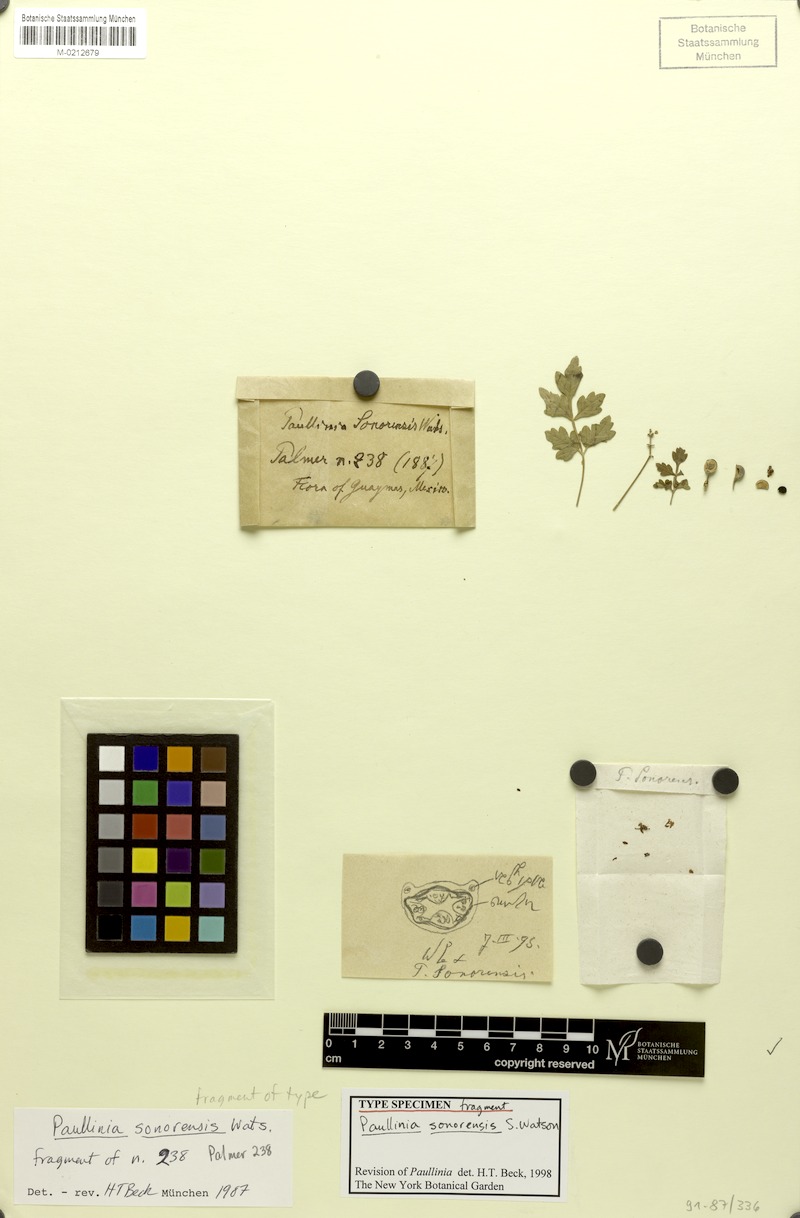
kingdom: Plantae
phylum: Tracheophyta
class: Magnoliopsida
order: Sapindales
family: Sapindaceae
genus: Serjania
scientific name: Serjania sonorensis
